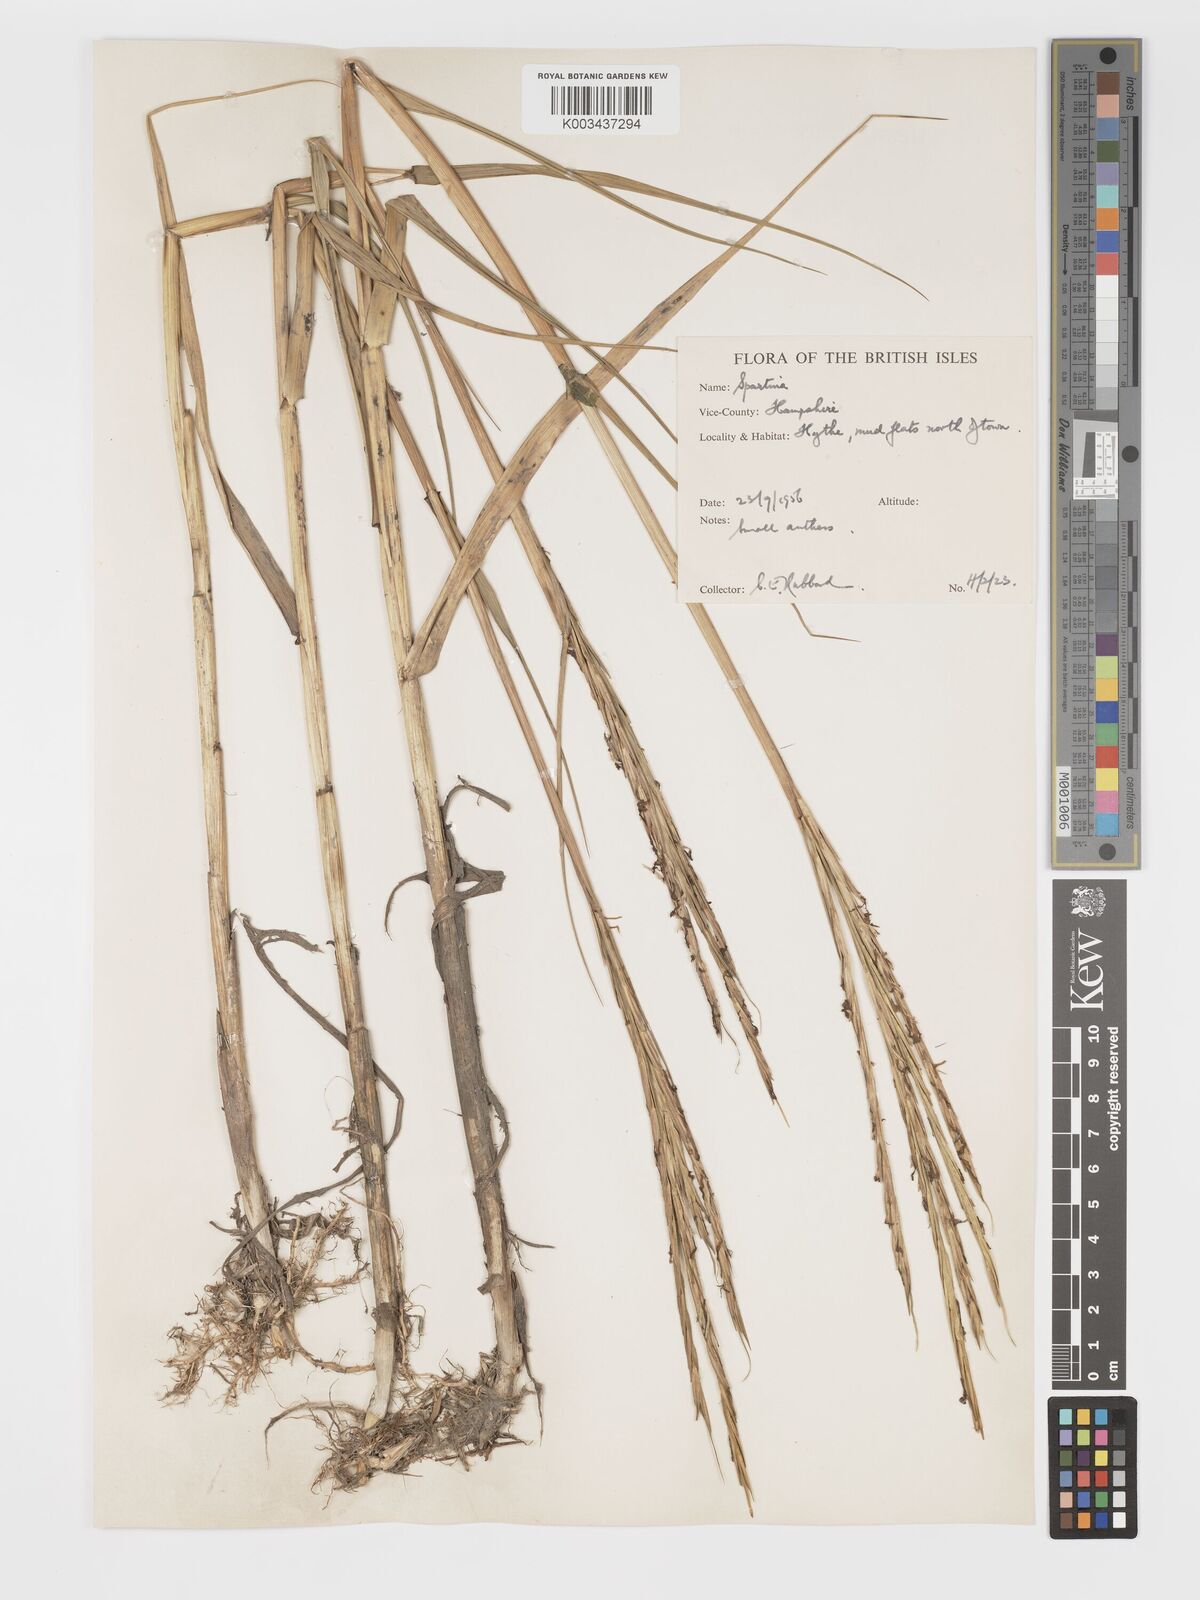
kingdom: Plantae
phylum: Tracheophyta
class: Liliopsida
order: Poales
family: Poaceae
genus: Sporobolus
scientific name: Sporobolus townsendii
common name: Townsend's cordgrass
